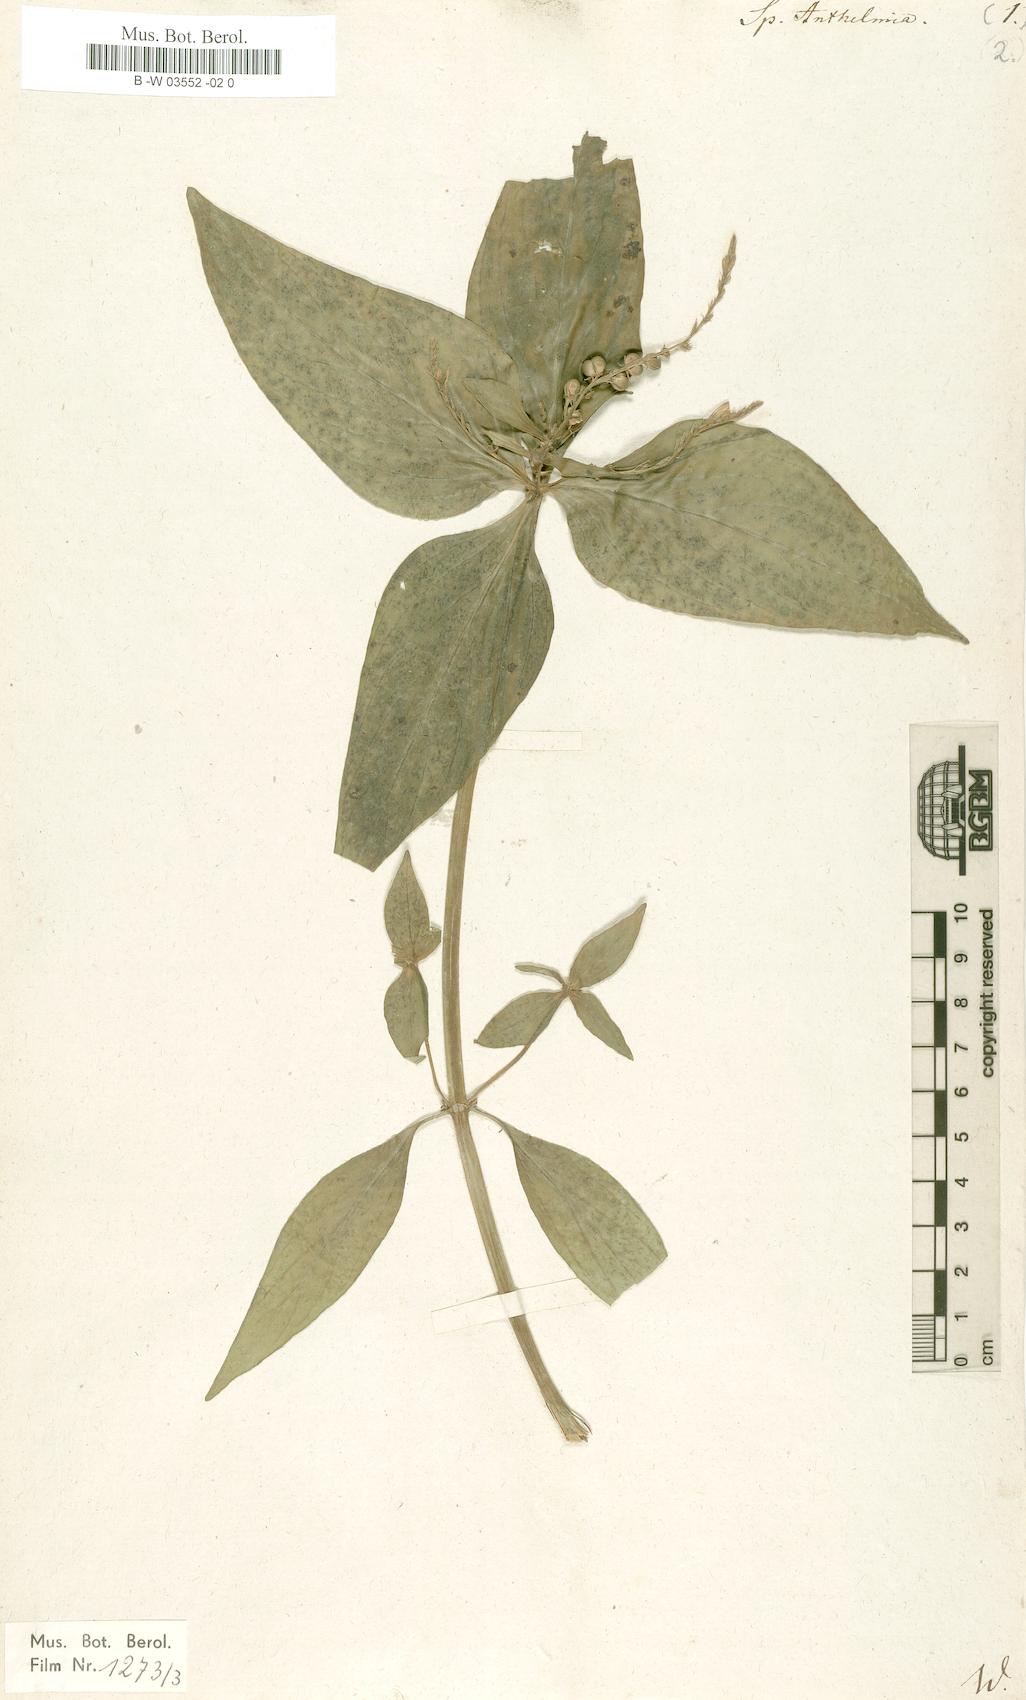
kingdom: Plantae
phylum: Tracheophyta
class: Magnoliopsida
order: Gentianales
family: Loganiaceae
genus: Spigelia
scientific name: Spigelia anthelmia
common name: West indian-pink
